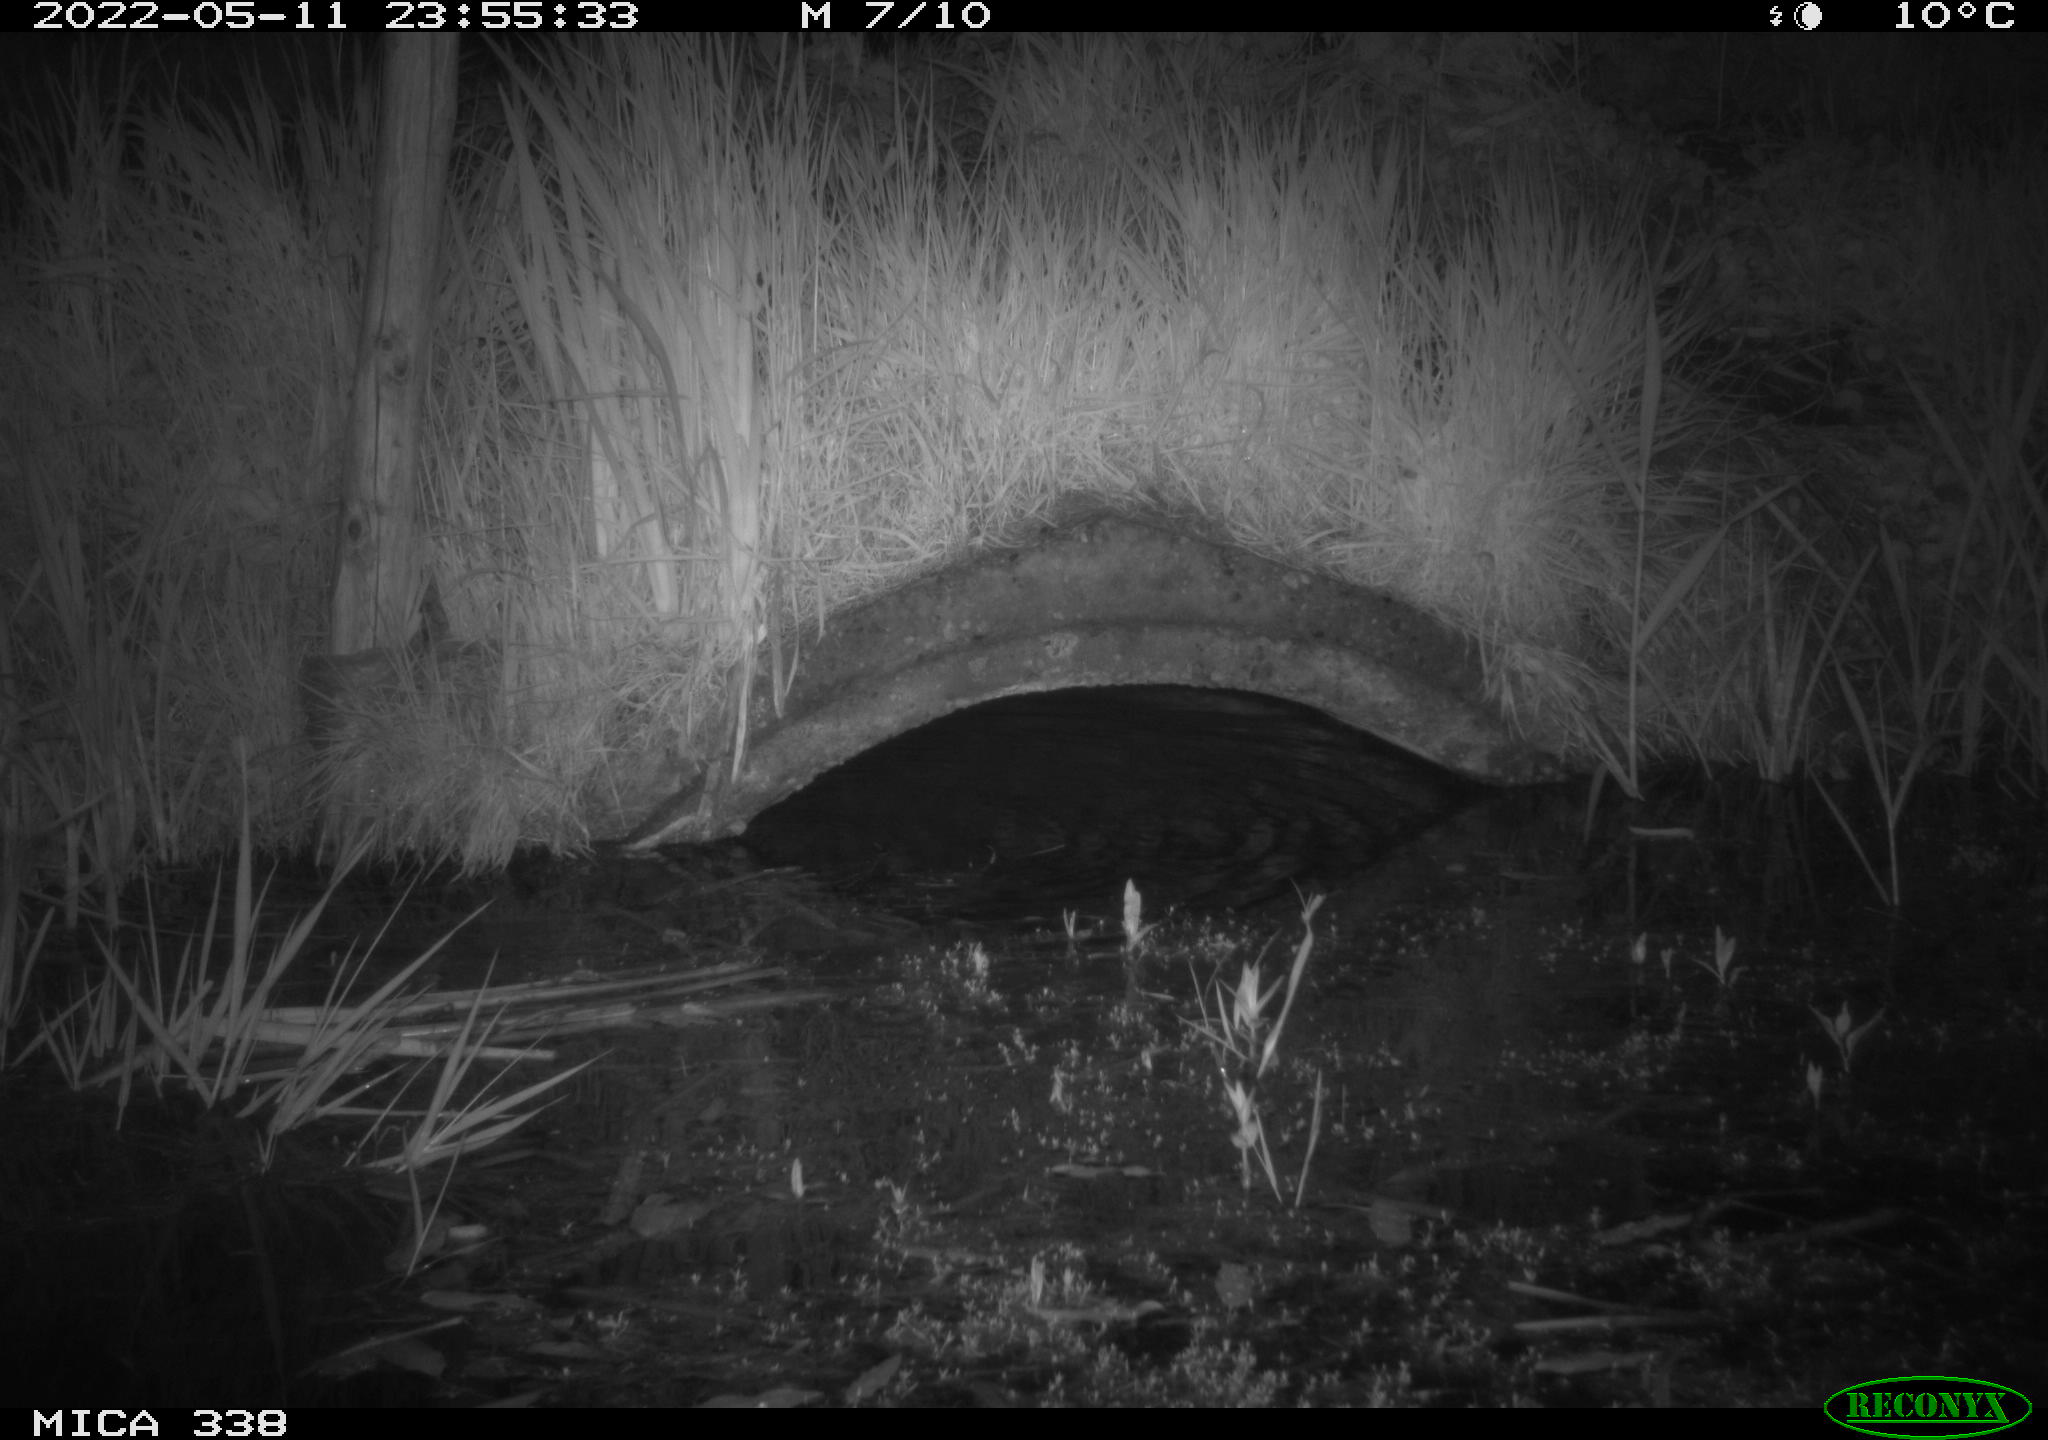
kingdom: Animalia
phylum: Chordata
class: Mammalia
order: Rodentia
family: Muridae
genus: Rattus
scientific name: Rattus norvegicus
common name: Brown rat
